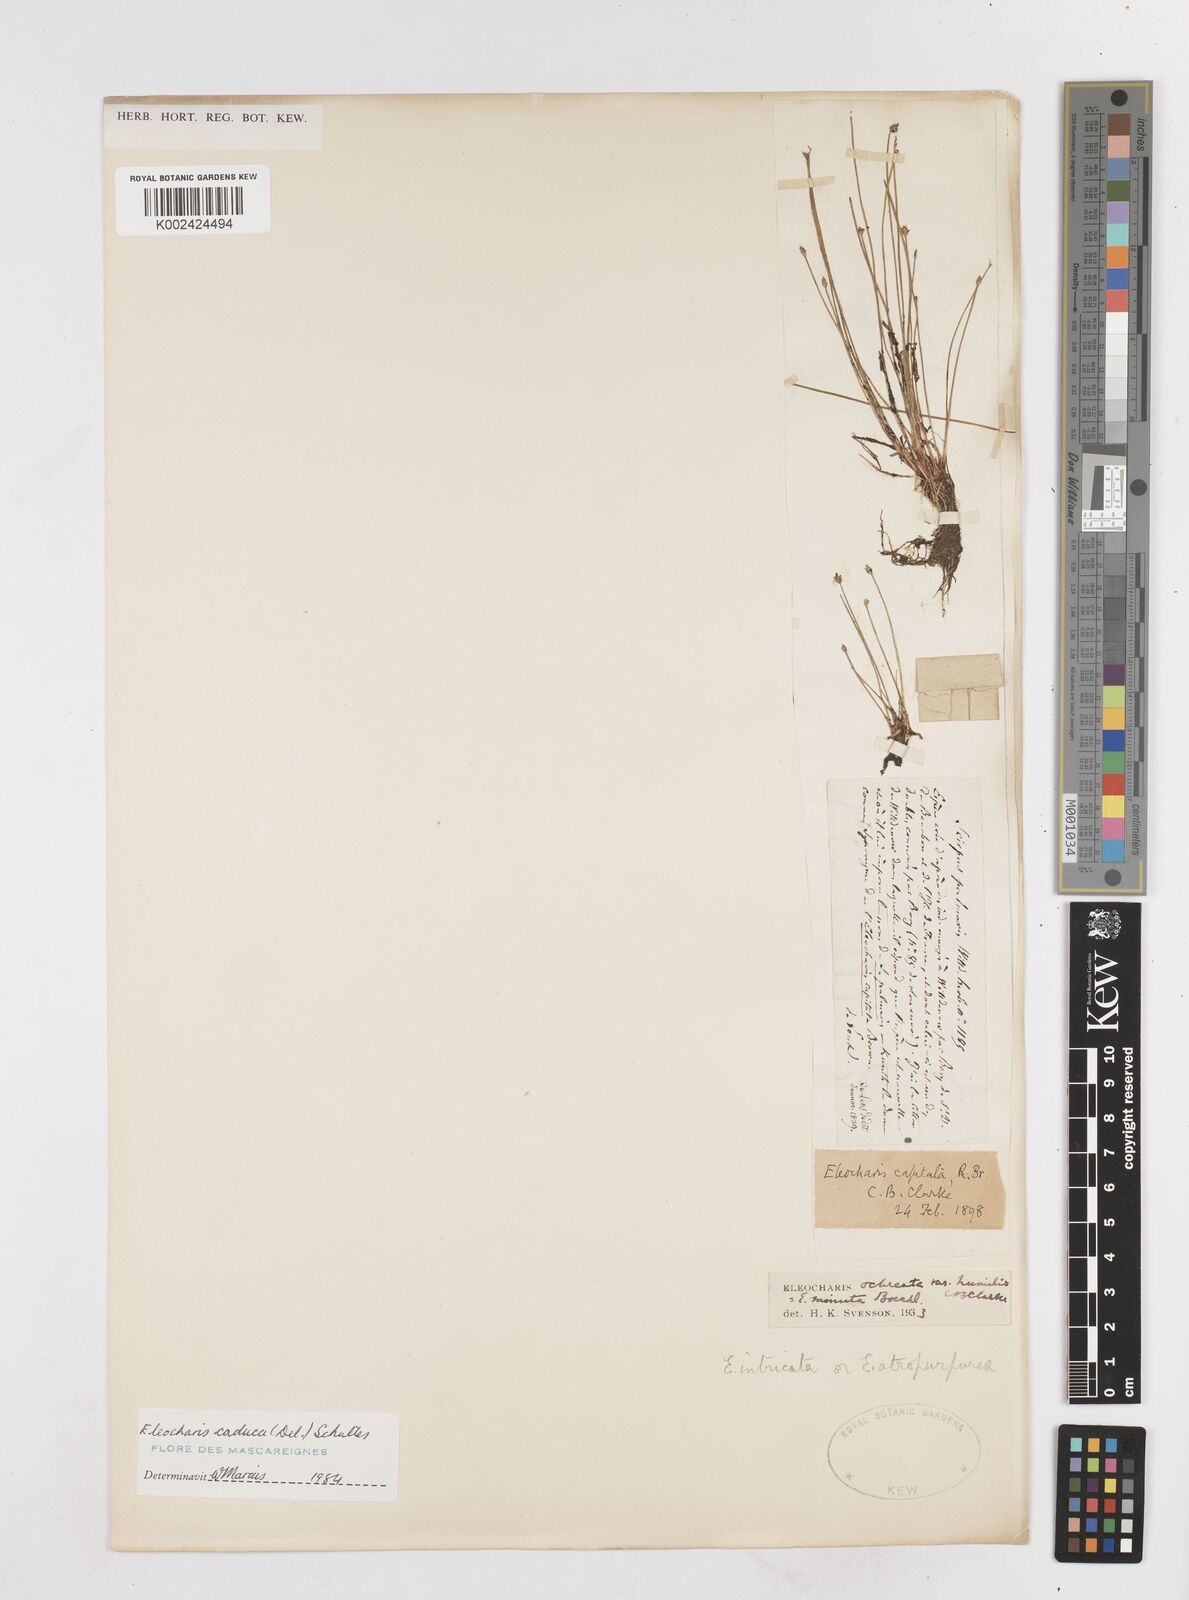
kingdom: Plantae
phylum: Tracheophyta
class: Liliopsida
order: Poales
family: Cyperaceae
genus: Eleocharis
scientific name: Eleocharis geniculata
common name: Canada spikesedge
